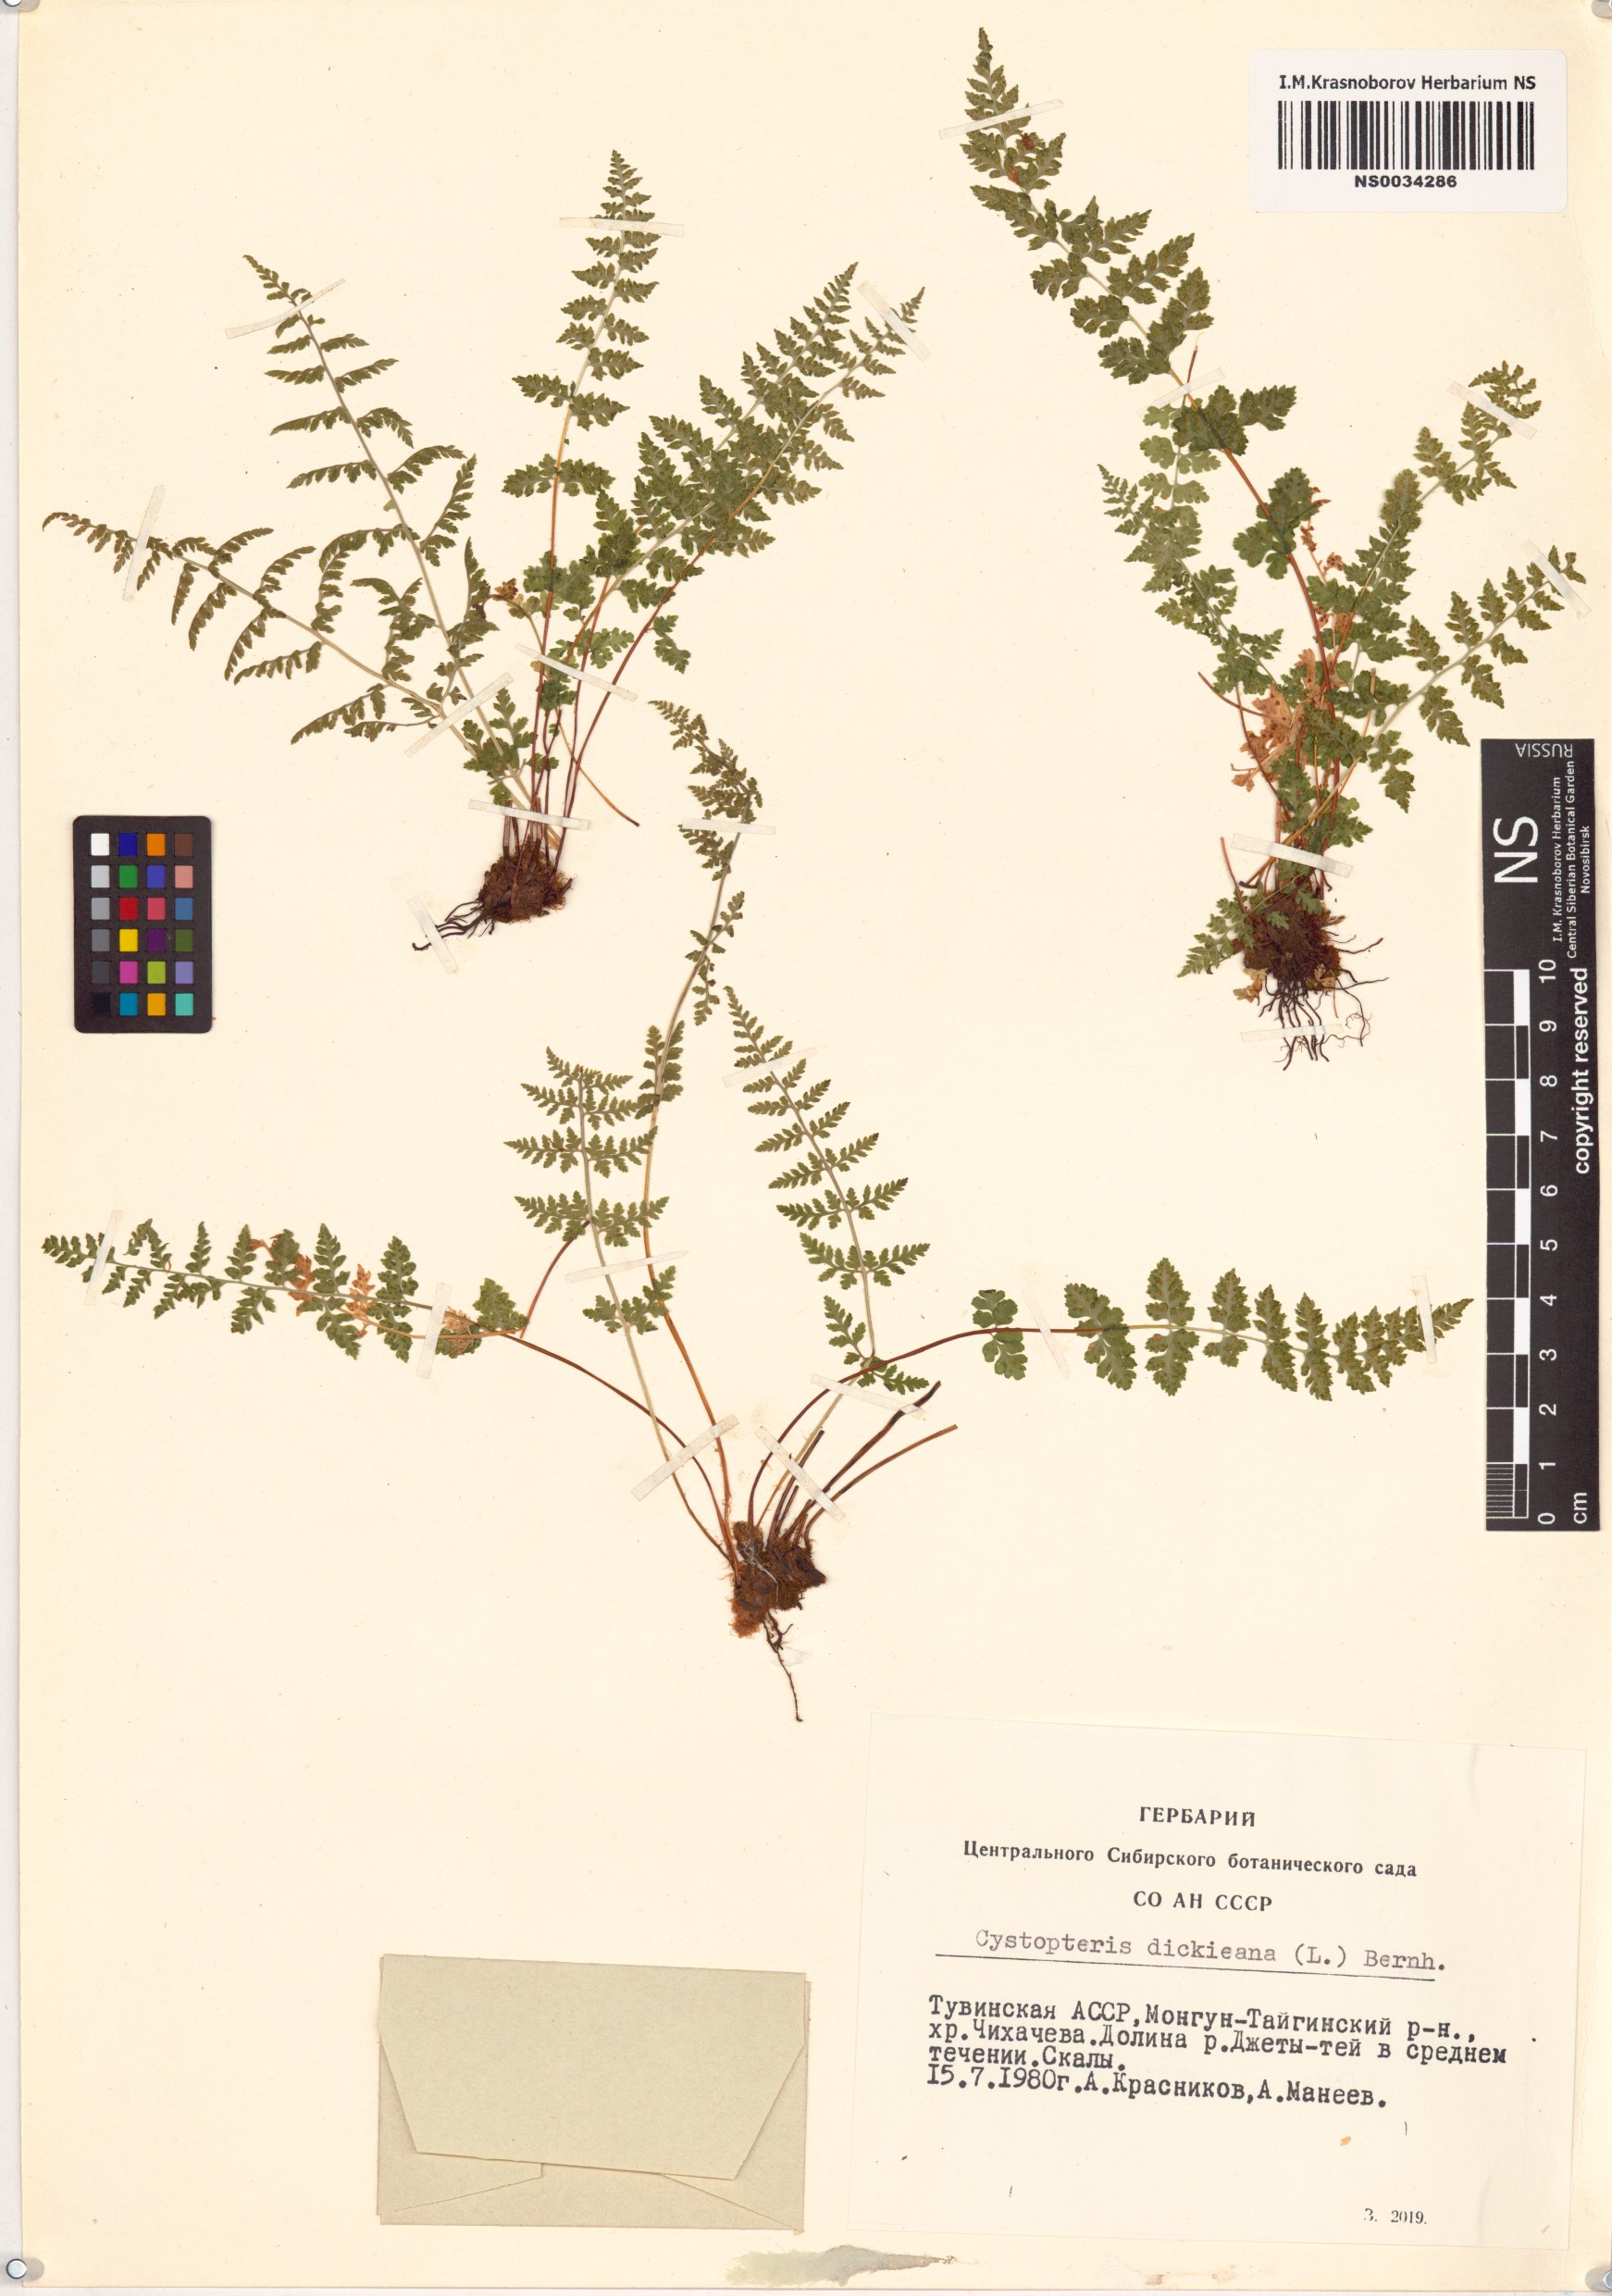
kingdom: Plantae
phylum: Tracheophyta
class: Polypodiopsida
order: Polypodiales
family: Cystopteridaceae
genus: Cystopteris
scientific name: Cystopteris dickieana
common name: Dickie's bladder-fern
